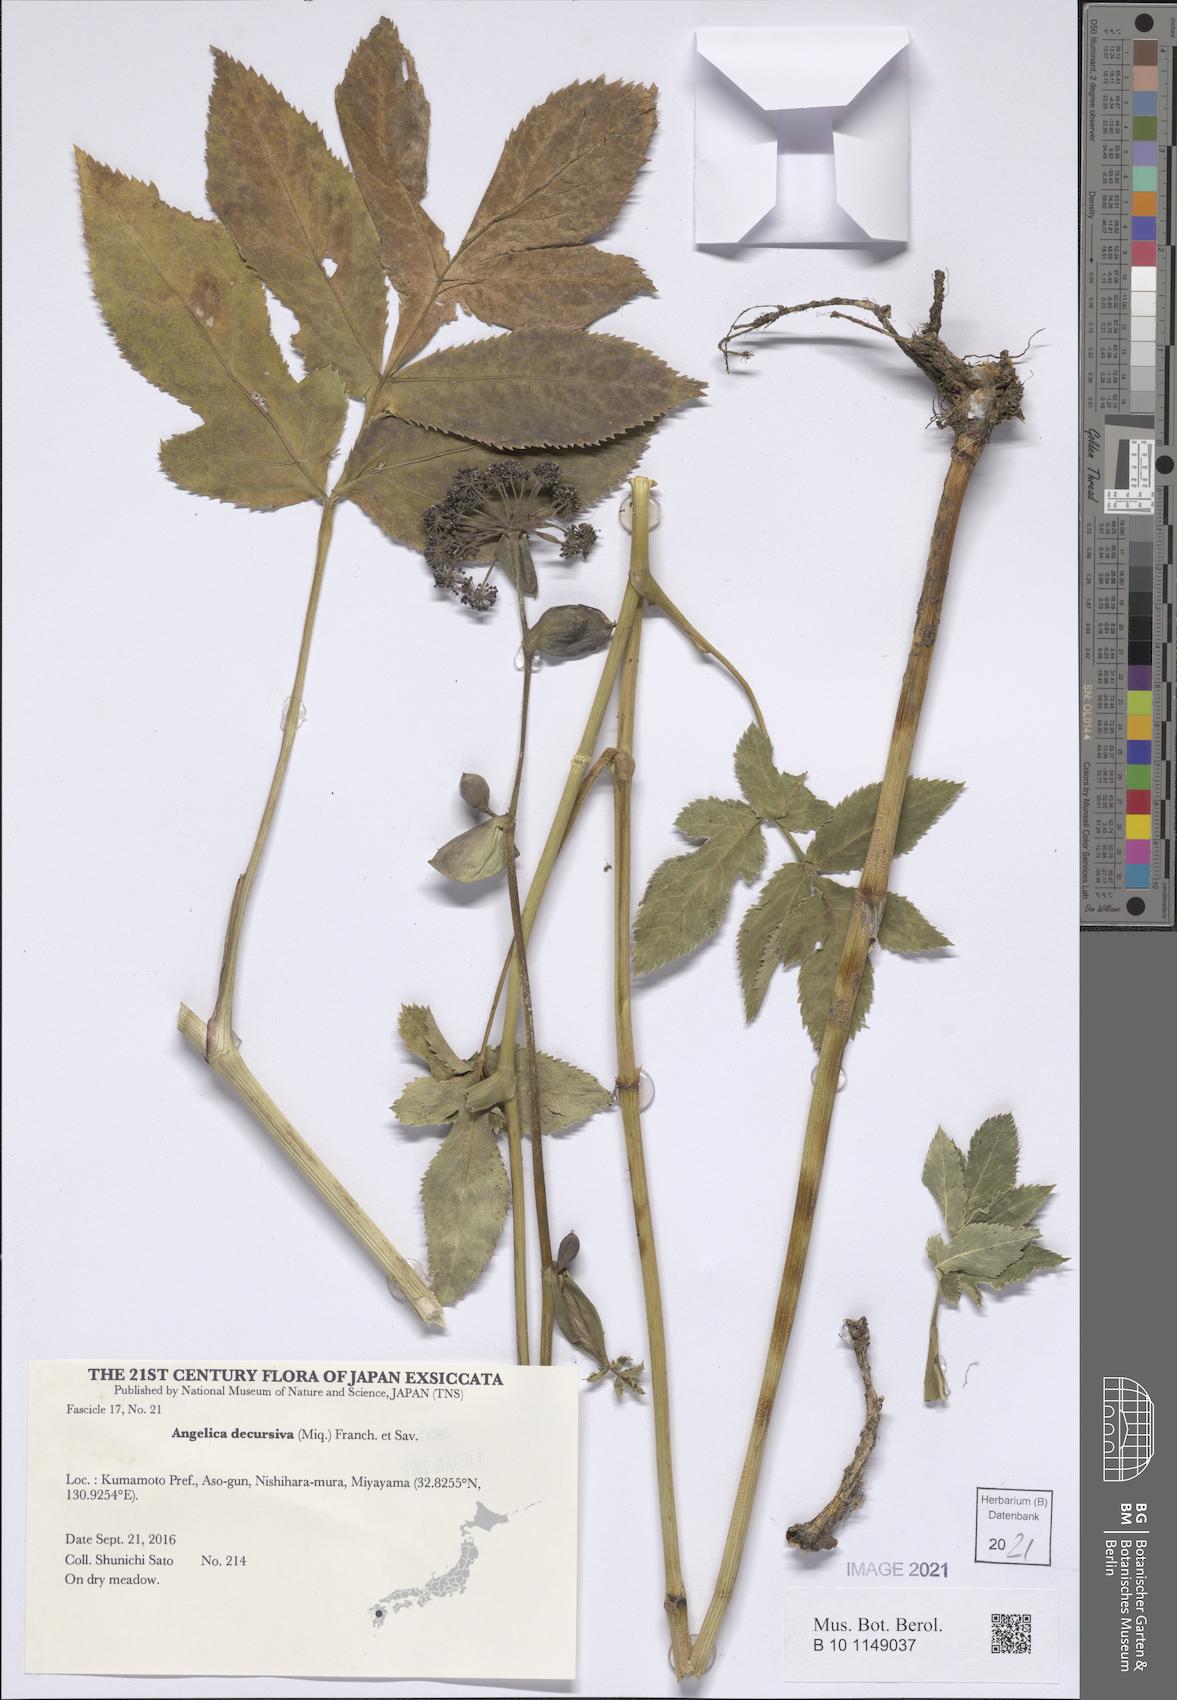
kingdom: Plantae
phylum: Tracheophyta
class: Magnoliopsida
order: Apiales
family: Apiaceae
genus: Halosciastrum
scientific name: Halosciastrum melanotilingia
